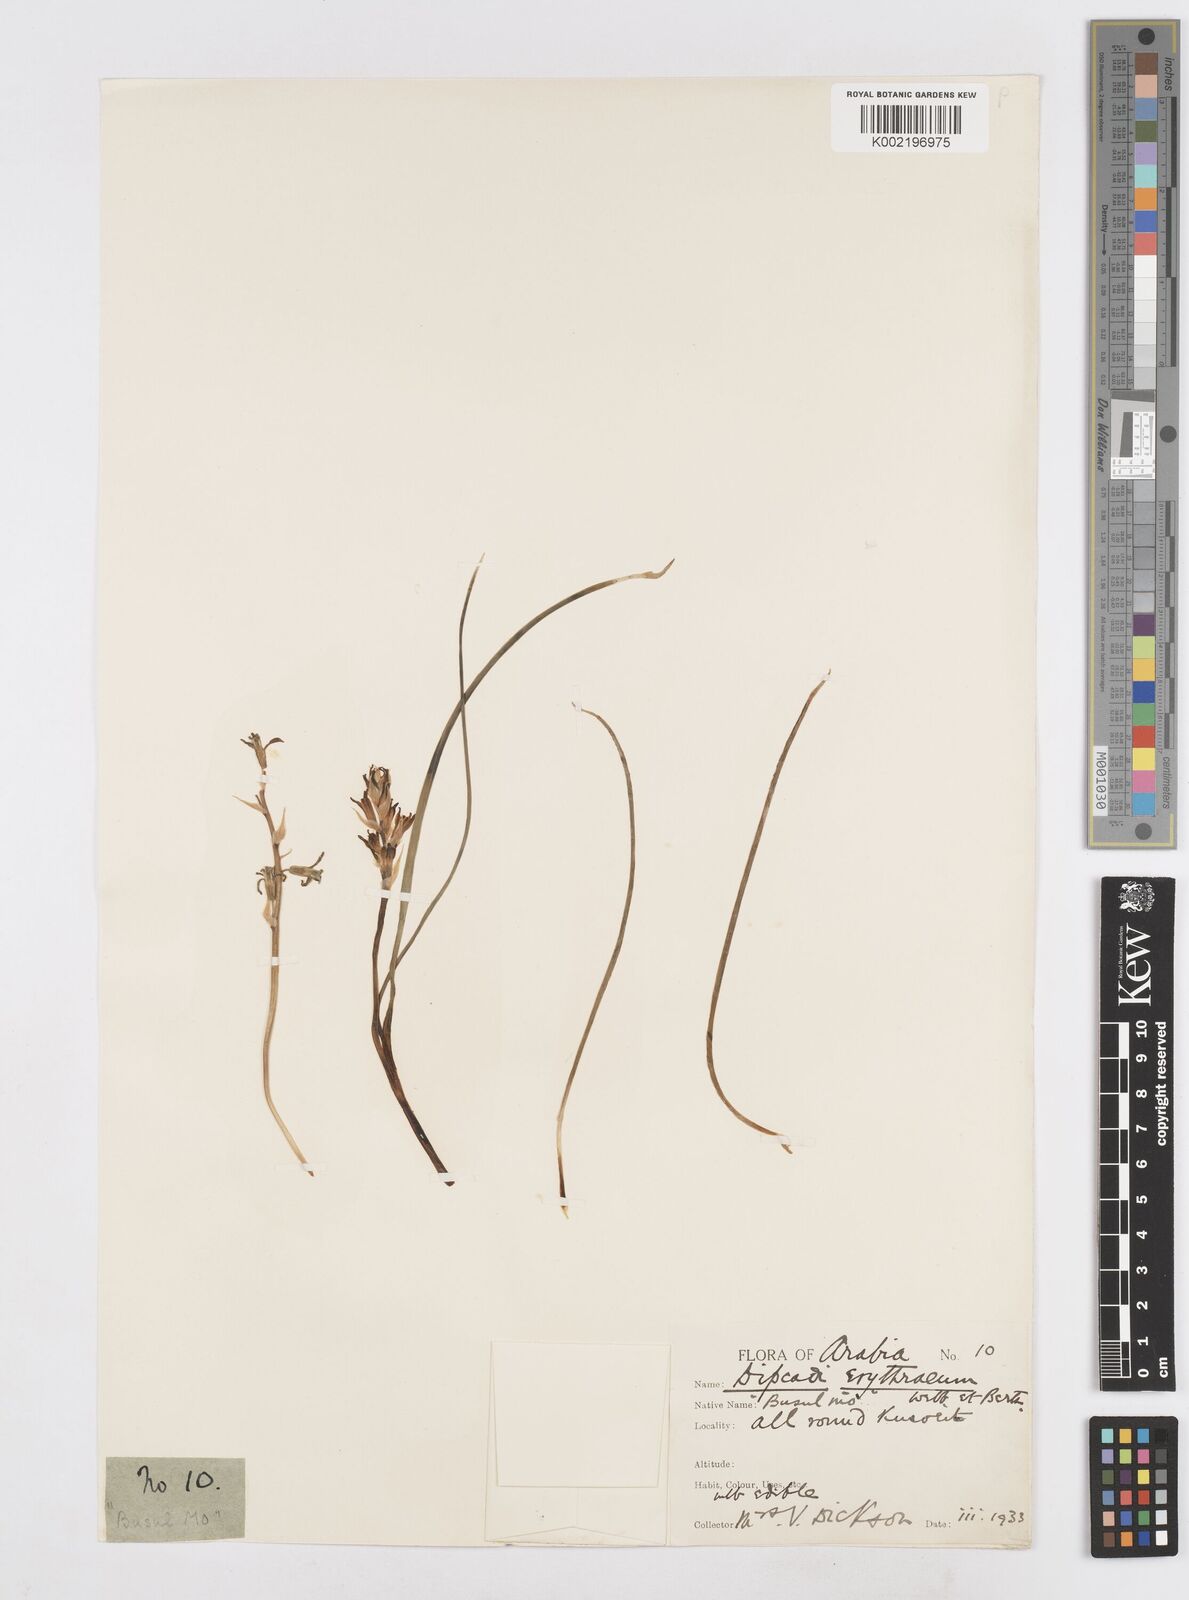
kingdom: Plantae
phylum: Tracheophyta
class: Liliopsida
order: Asparagales
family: Asparagaceae
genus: Dipcadi
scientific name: Dipcadi erythraeum
